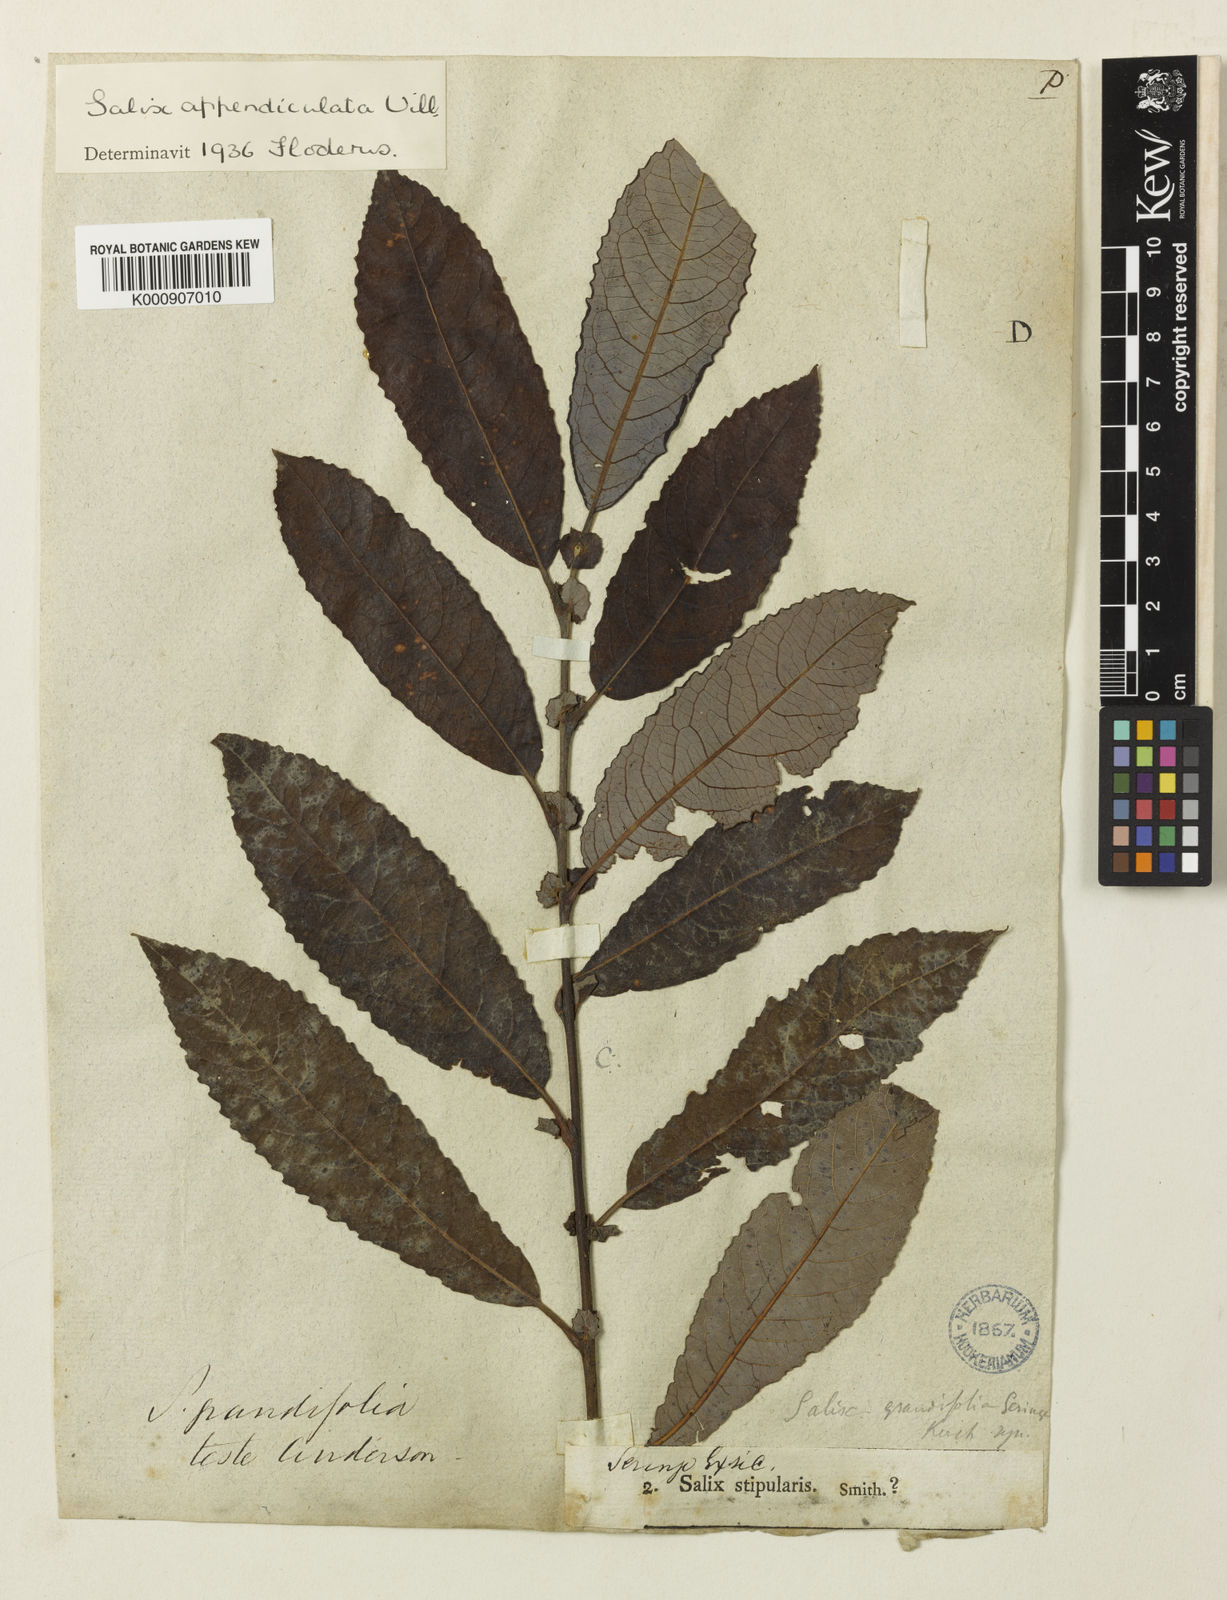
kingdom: Plantae
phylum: Tracheophyta
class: Magnoliopsida
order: Malpighiales
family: Salicaceae
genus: Salix
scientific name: Salix aurita
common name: Eared willow
